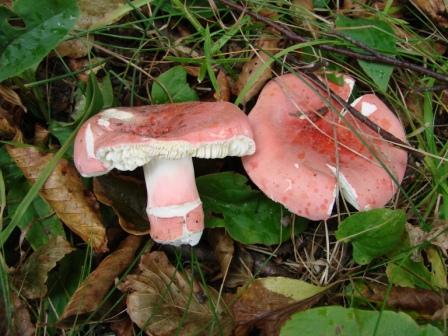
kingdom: Fungi
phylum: Basidiomycota
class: Agaricomycetes
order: Russulales
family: Russulaceae
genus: Russula
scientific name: Russula rosea
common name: fastkødet skørhat
